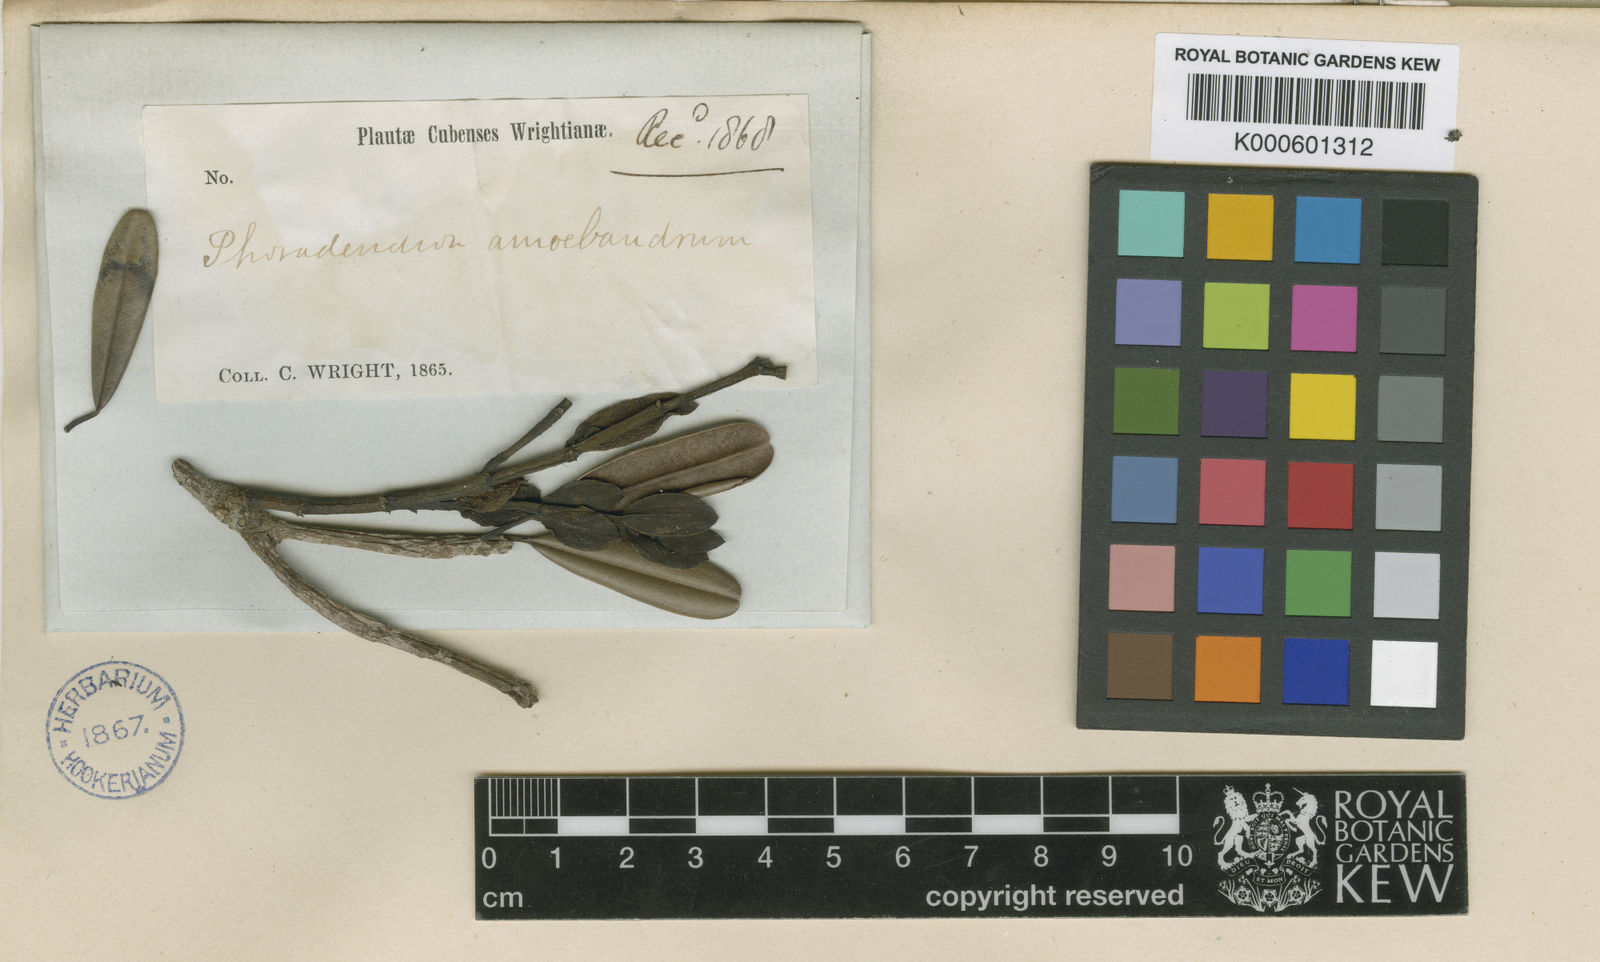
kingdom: Plantae
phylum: Tracheophyta
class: Magnoliopsida
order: Santalales
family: Viscaceae
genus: Dendrophthora
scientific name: Dendrophthora sessilifolia
